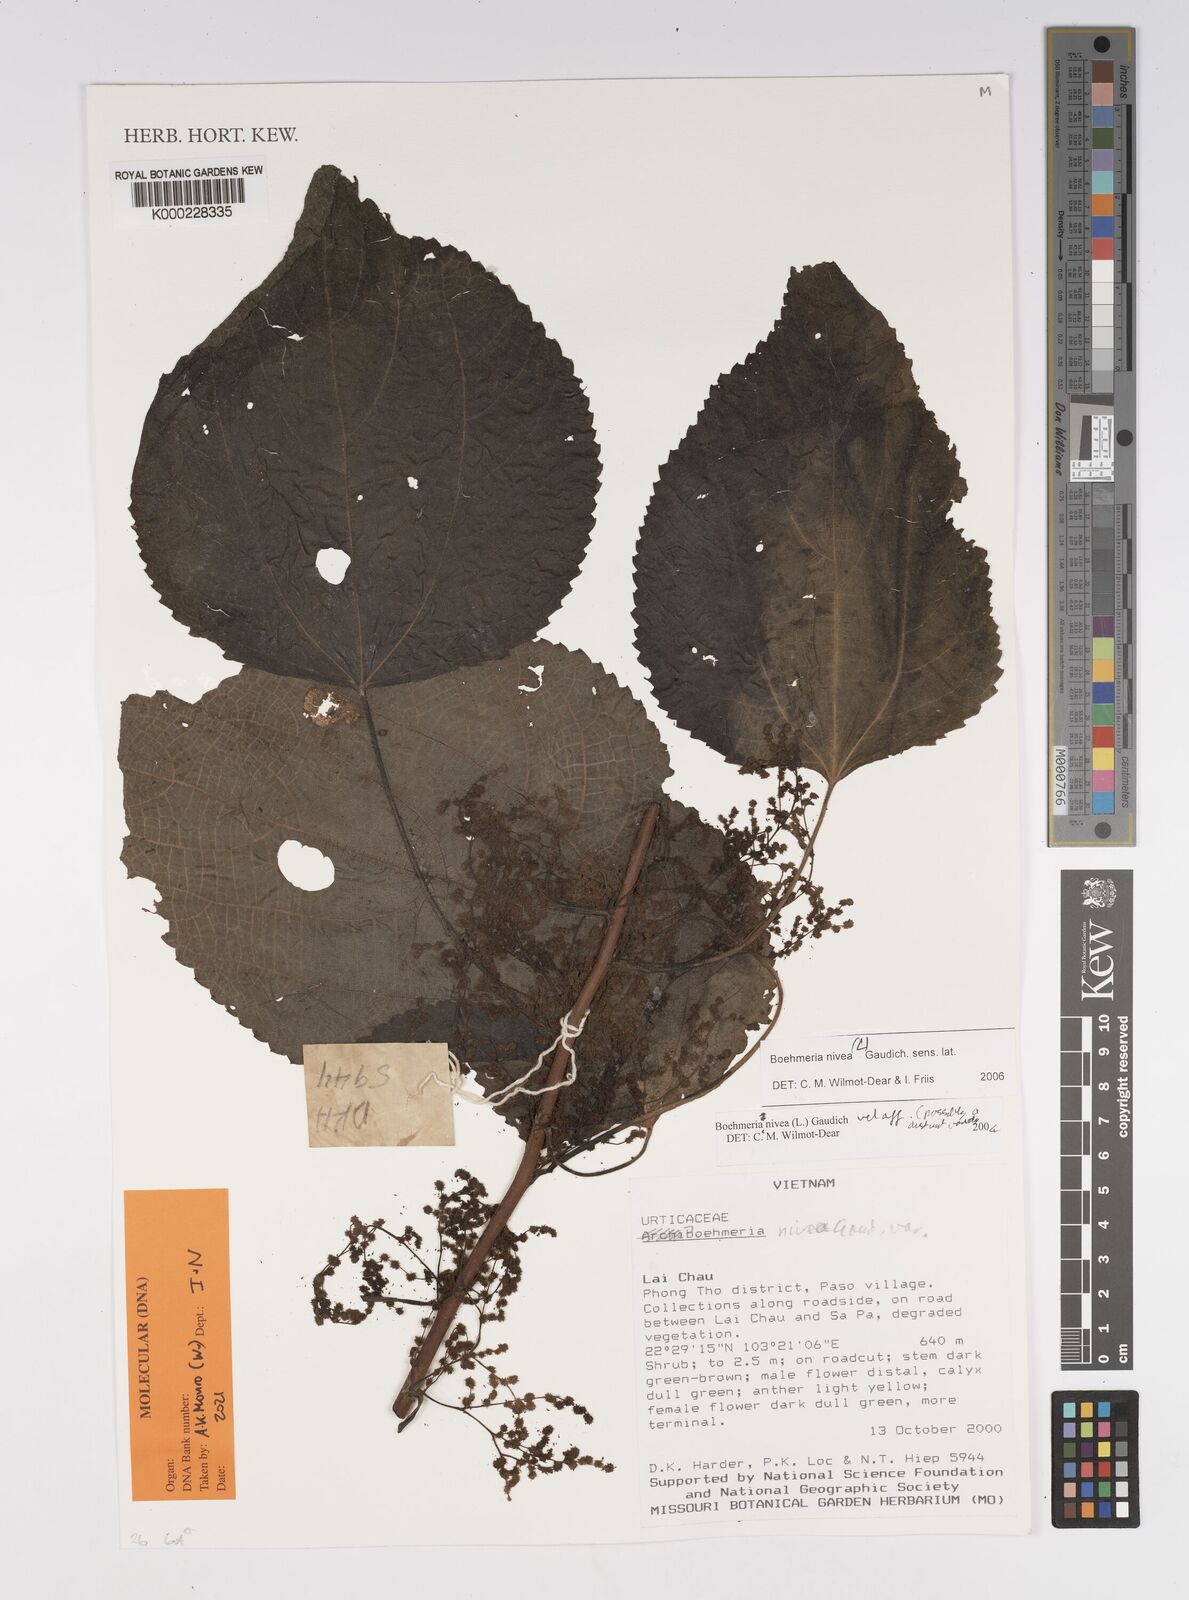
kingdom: Plantae
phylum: Tracheophyta
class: Magnoliopsida
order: Rosales
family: Urticaceae
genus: Boehmeria
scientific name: Boehmeria nivea
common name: Ramie chinese grass
